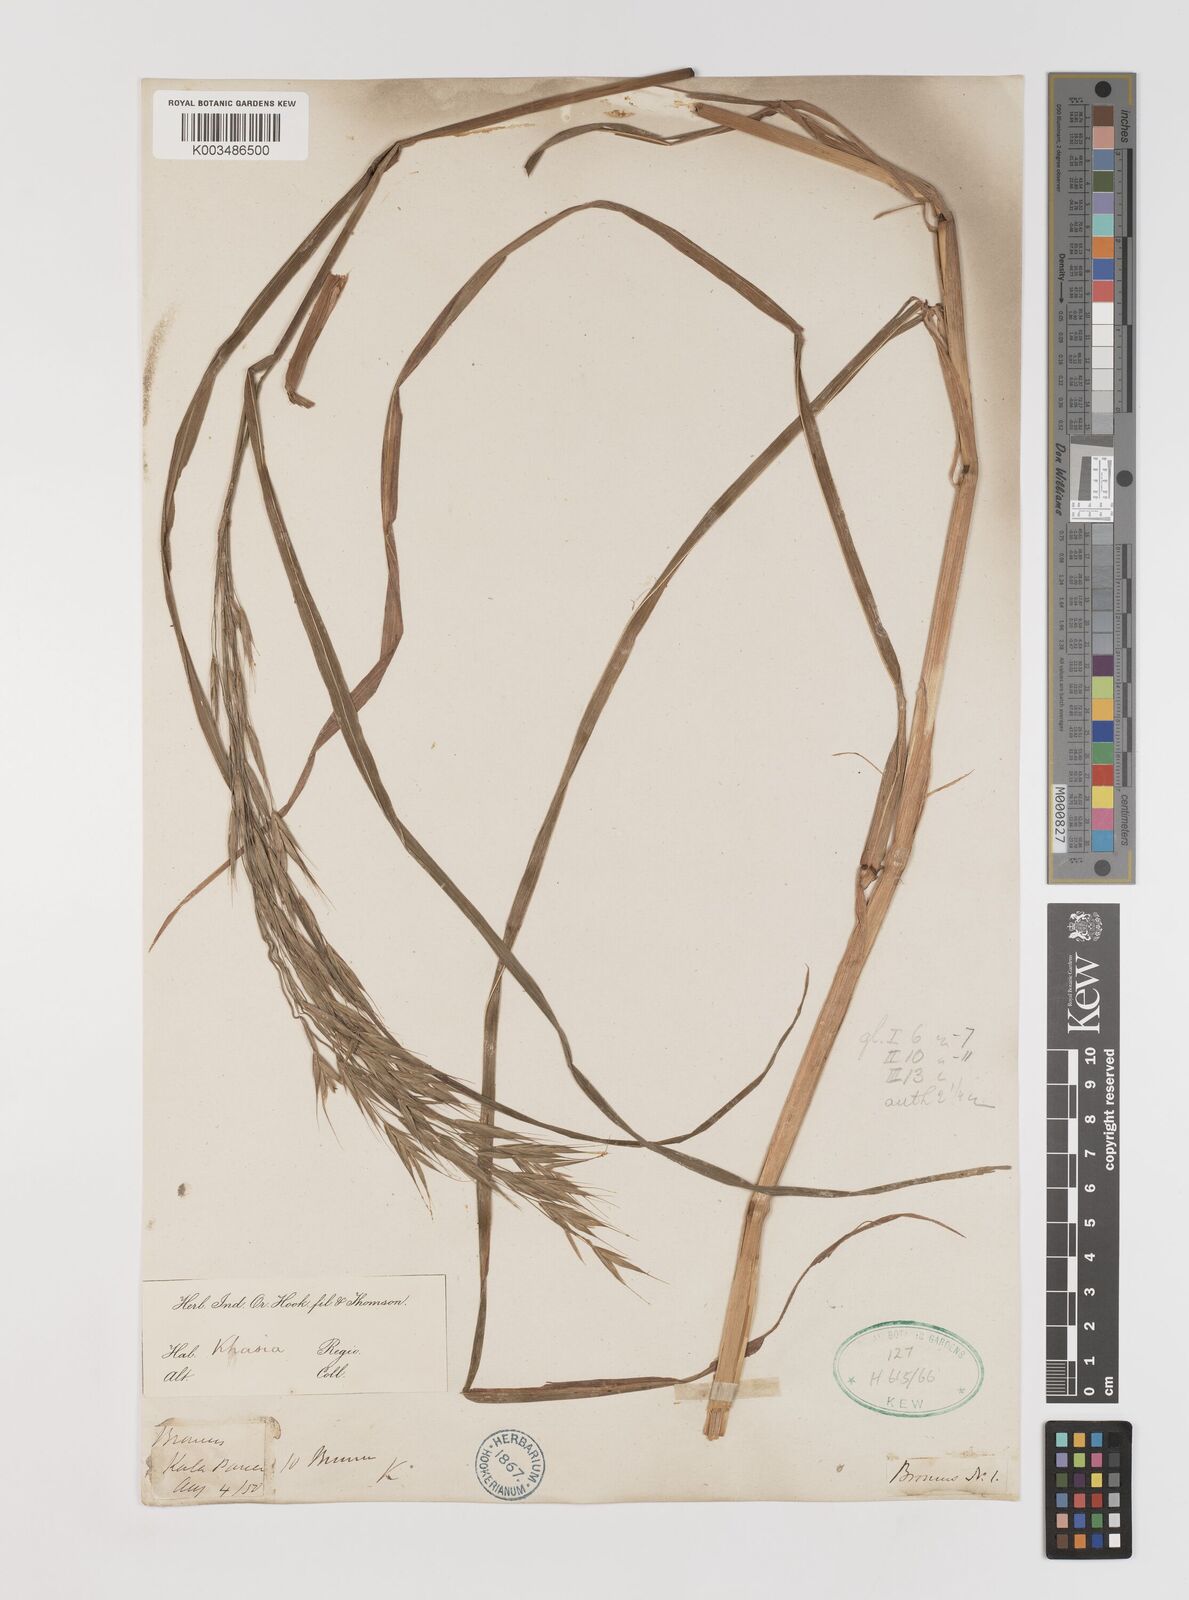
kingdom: Plantae
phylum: Tracheophyta
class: Liliopsida
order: Poales
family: Poaceae
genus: Bromus
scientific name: Bromus himalaicus
